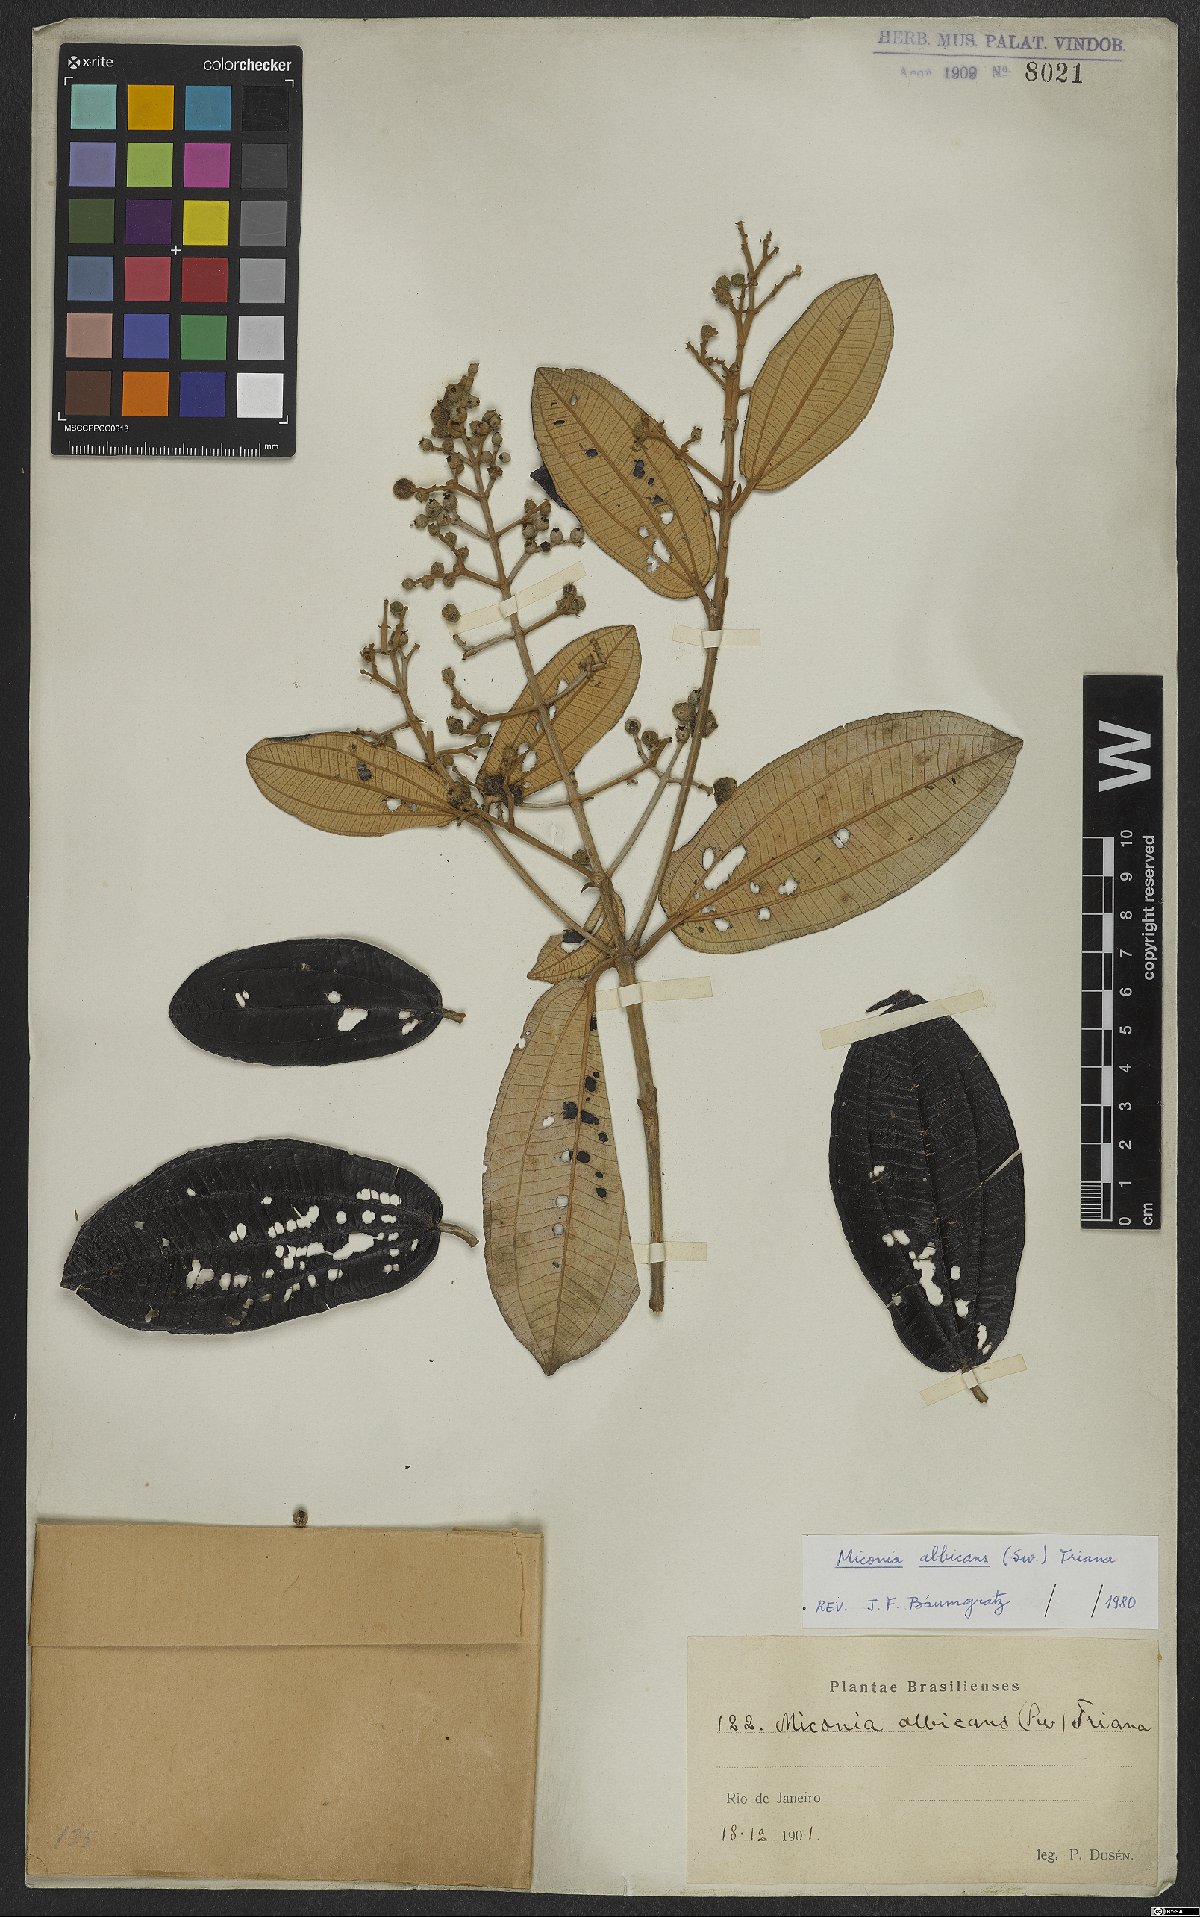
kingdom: Plantae
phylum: Tracheophyta
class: Magnoliopsida
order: Myrtales
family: Melastomataceae
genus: Miconia
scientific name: Miconia albicans
